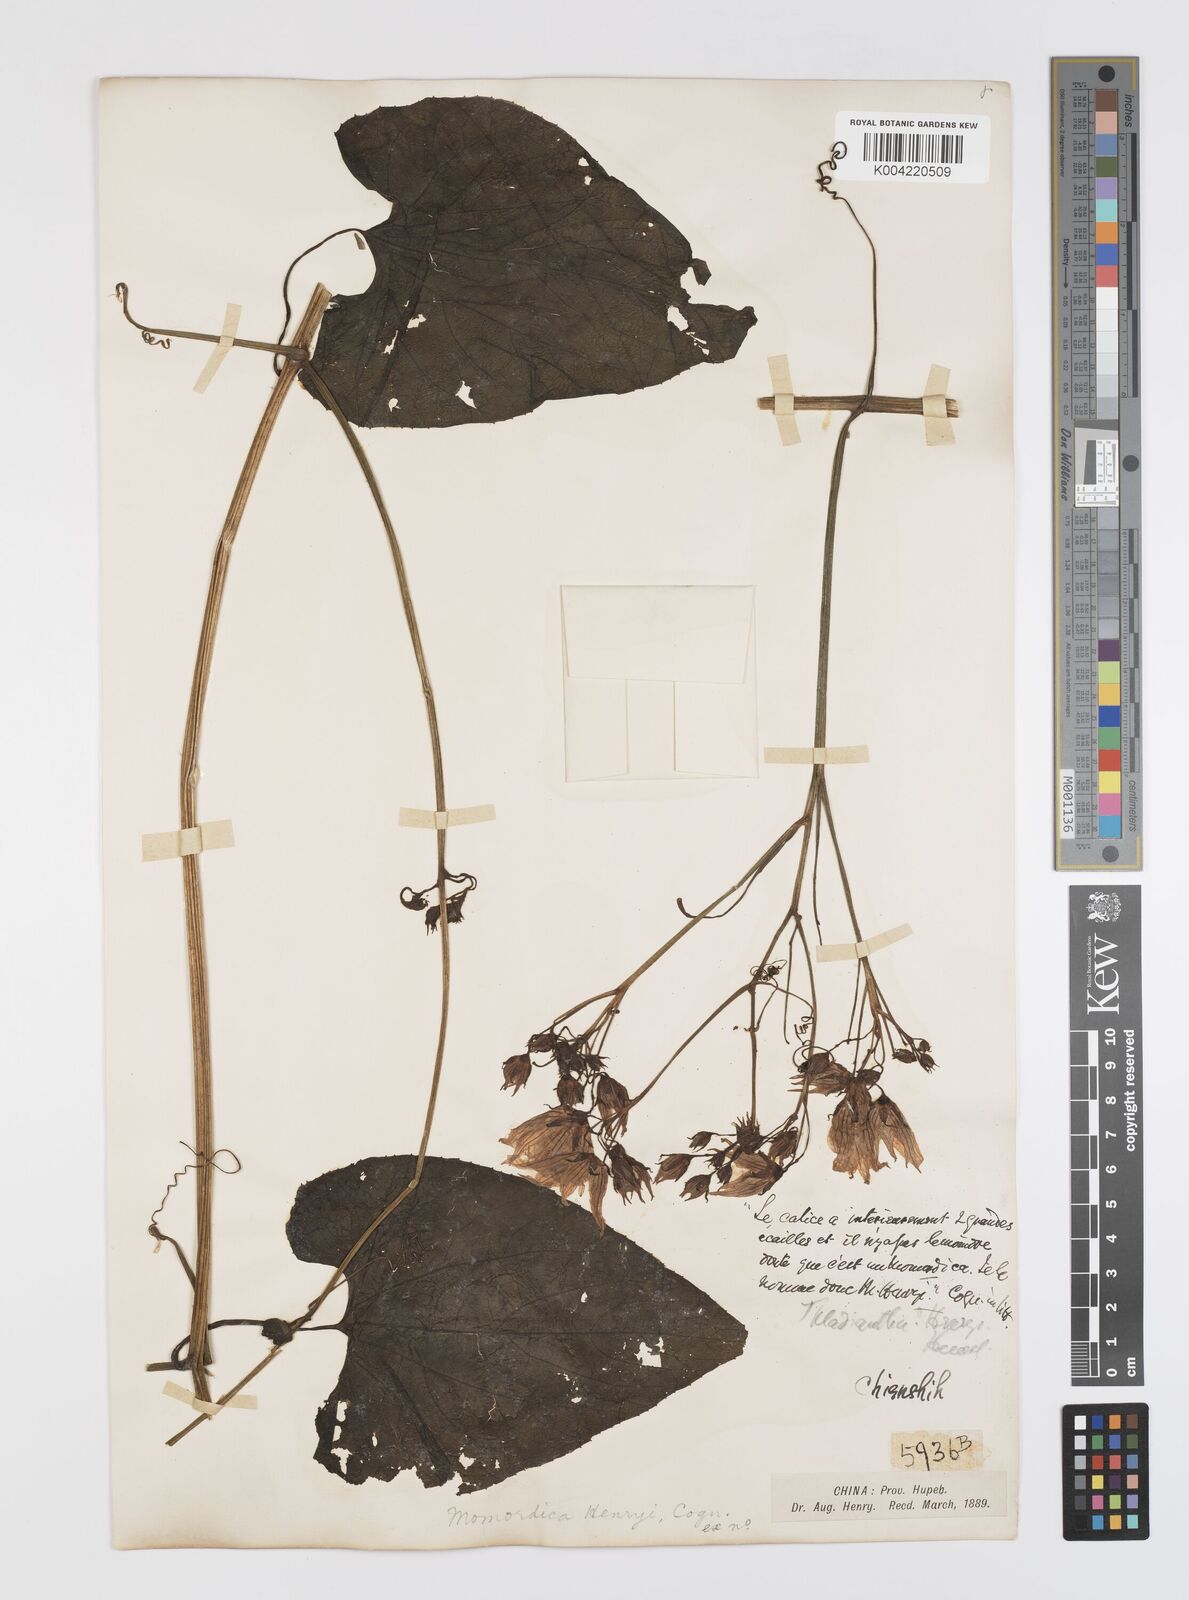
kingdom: Plantae
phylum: Tracheophyta
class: Magnoliopsida
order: Cucurbitales
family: Cucurbitaceae
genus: Thladiantha
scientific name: Thladiantha henryi
